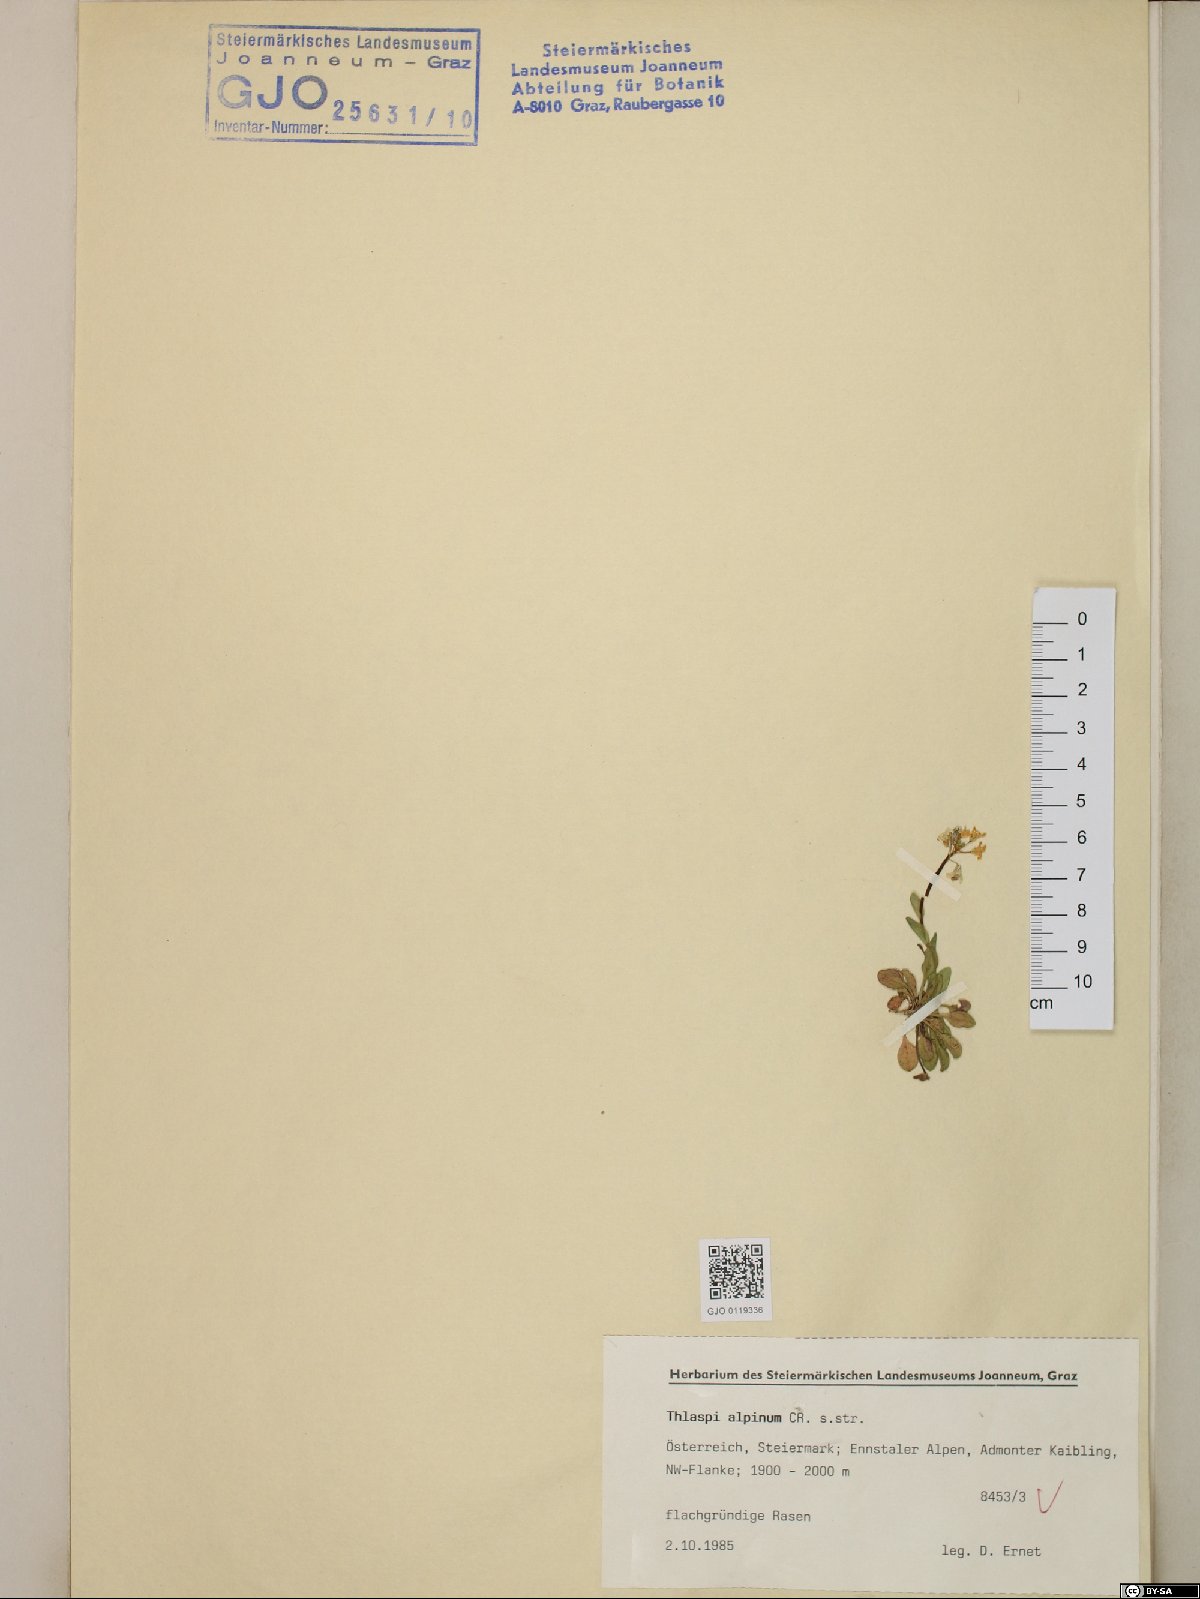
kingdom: Plantae
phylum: Tracheophyta
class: Magnoliopsida
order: Brassicales
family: Brassicaceae
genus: Noccaea
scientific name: Noccaea alpestris
